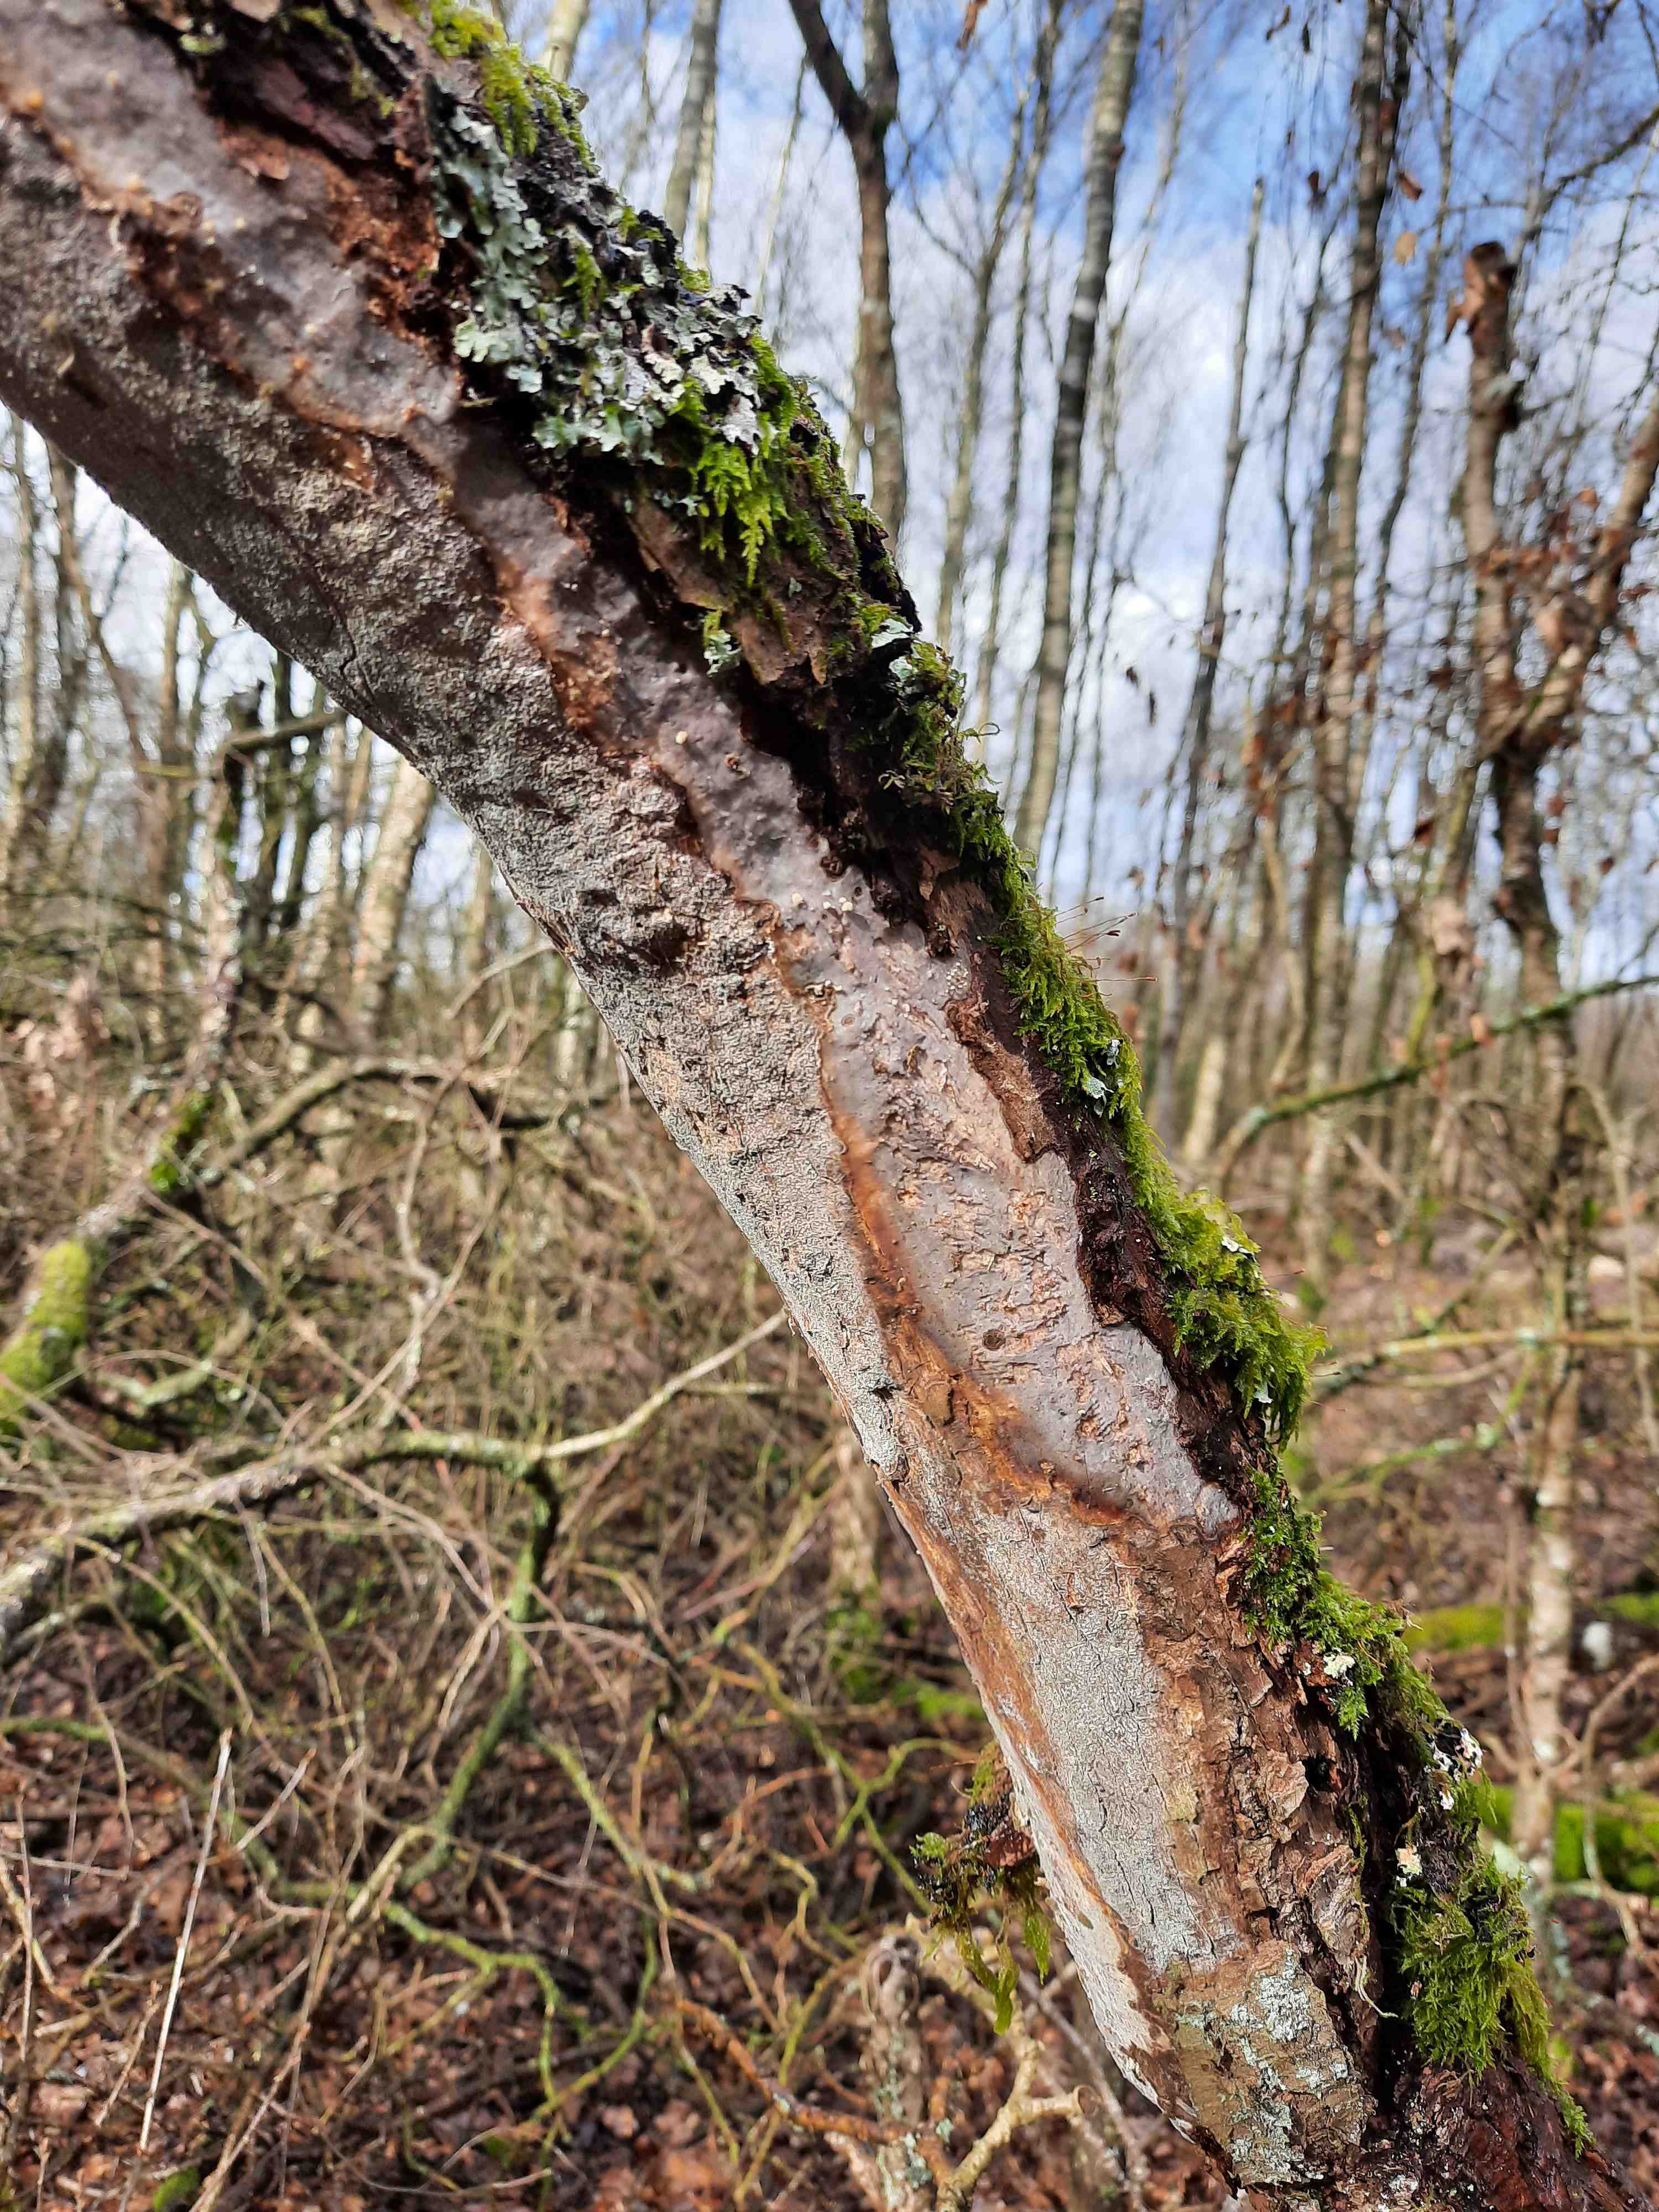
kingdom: Fungi
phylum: Basidiomycota
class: Agaricomycetes
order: Corticiales
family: Vuilleminiaceae
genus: Vuilleminia
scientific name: Vuilleminia comedens
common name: almindelig barksprænger
